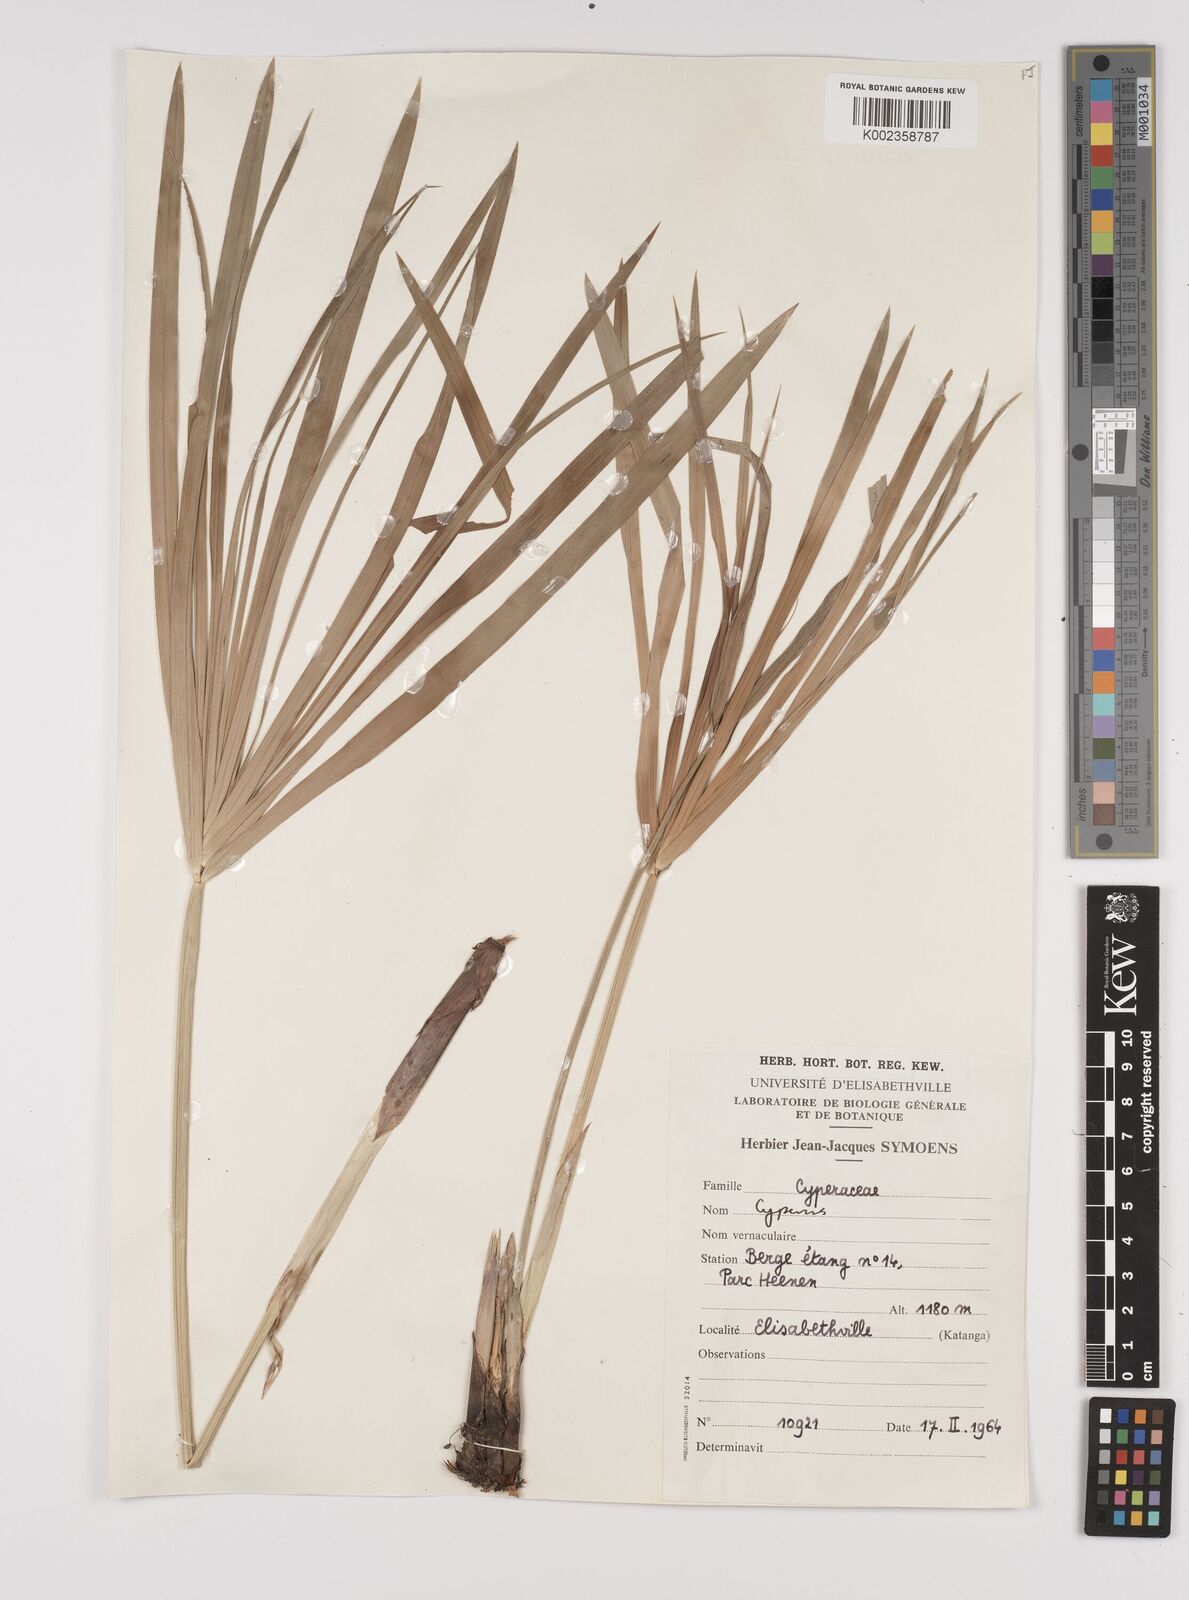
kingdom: Plantae
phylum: Tracheophyta
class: Liliopsida
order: Poales
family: Cyperaceae
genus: Cyperus
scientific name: Cyperus alternifolius
